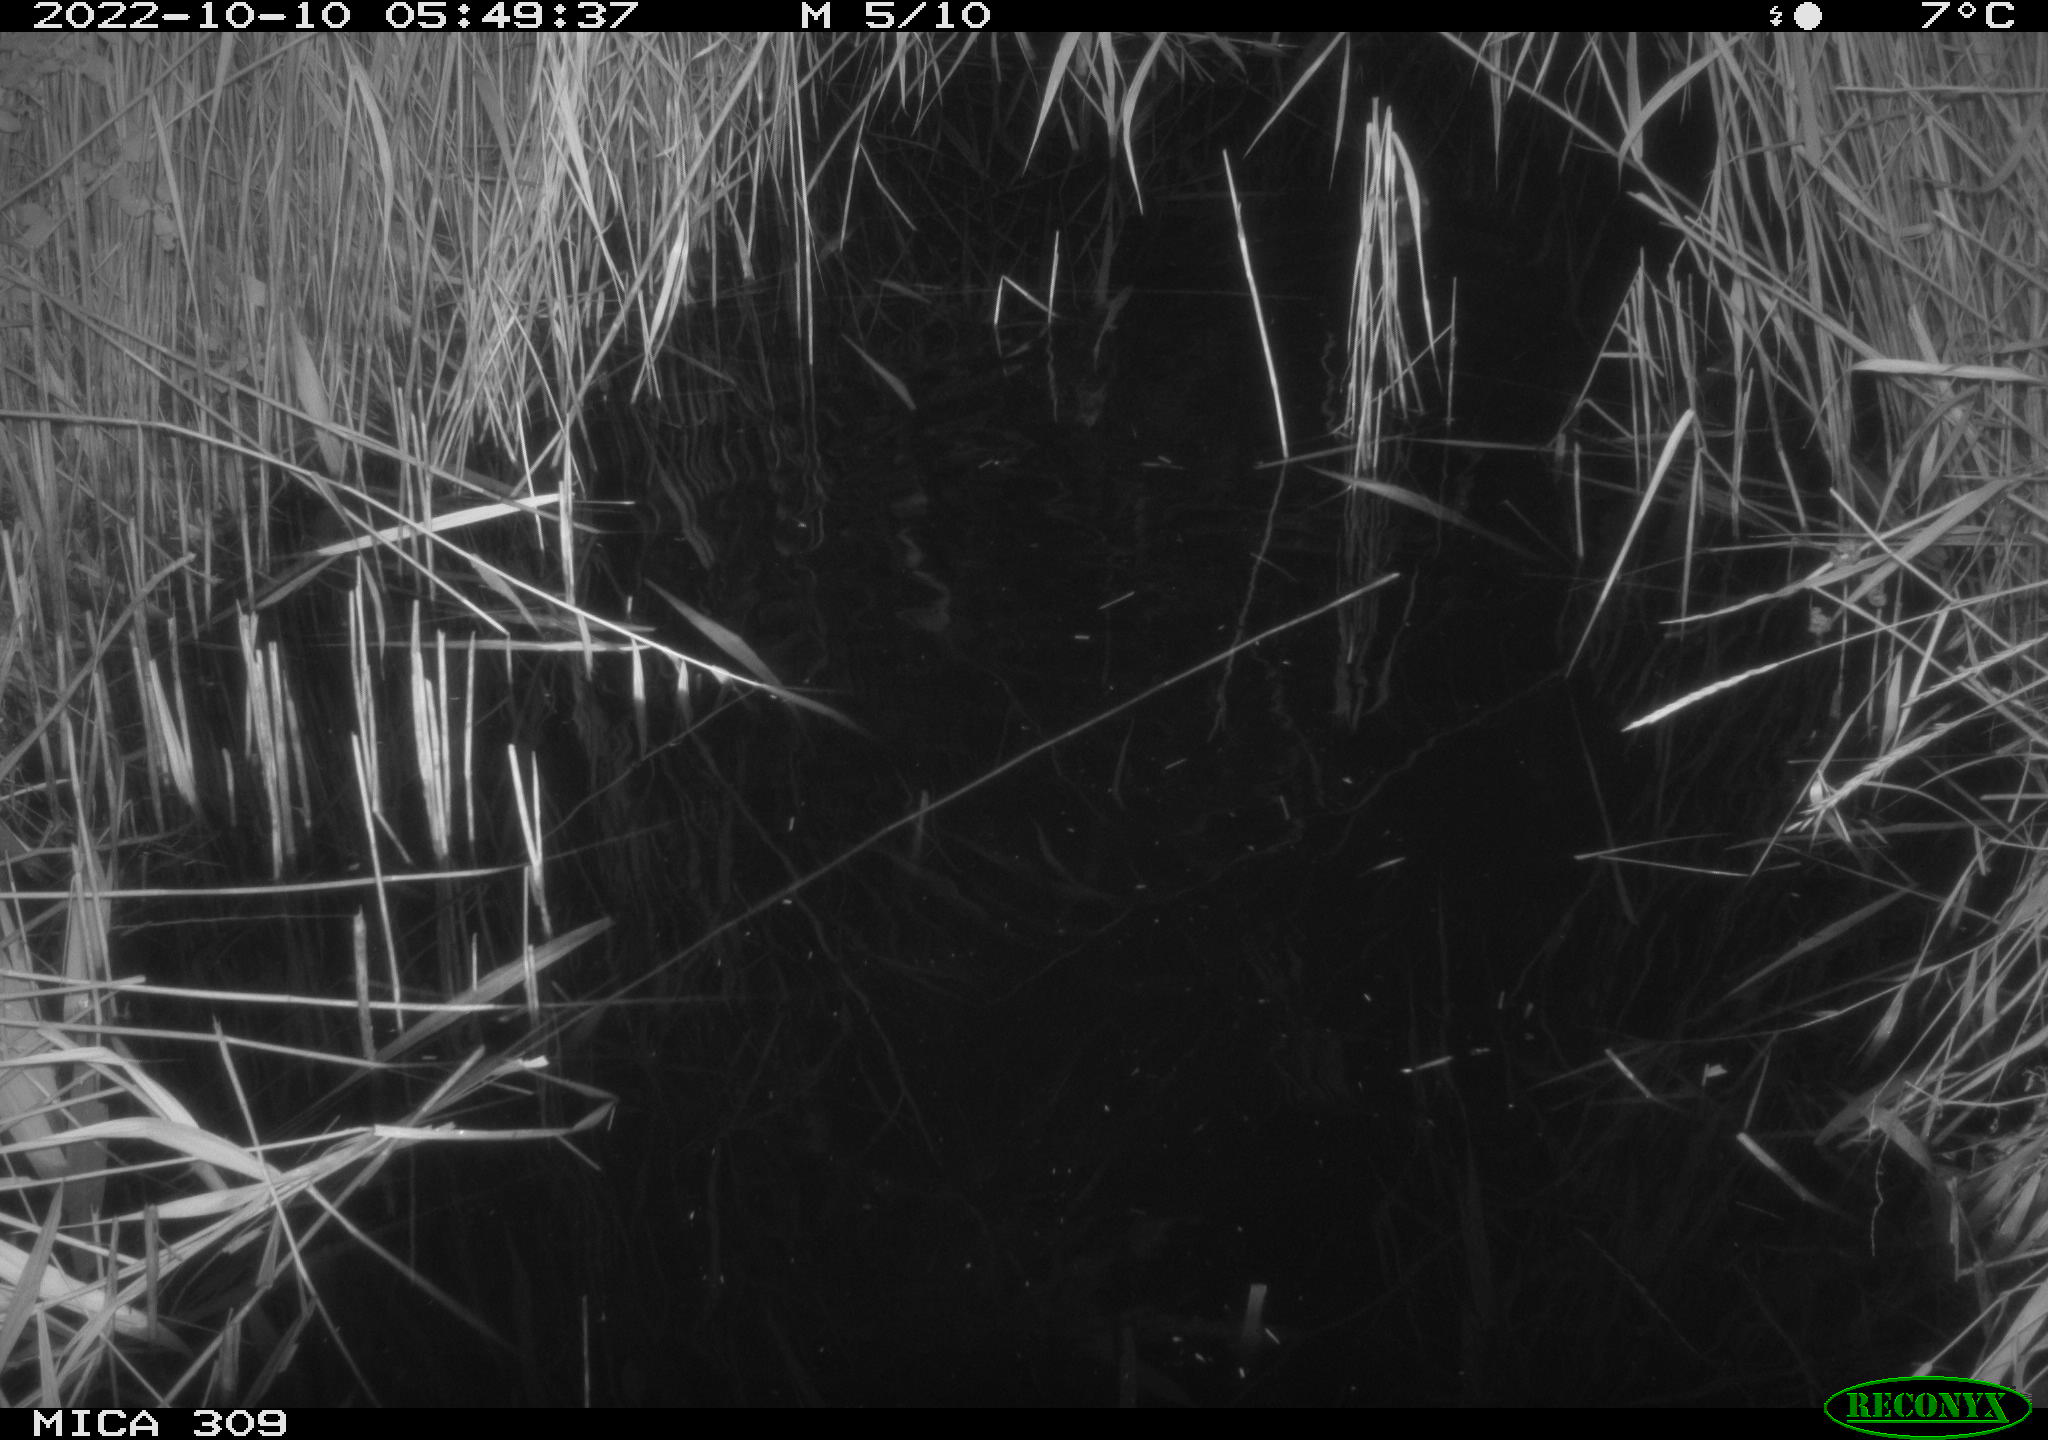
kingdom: Animalia
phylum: Chordata
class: Mammalia
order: Rodentia
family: Muridae
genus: Rattus
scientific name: Rattus norvegicus
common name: Brown rat
